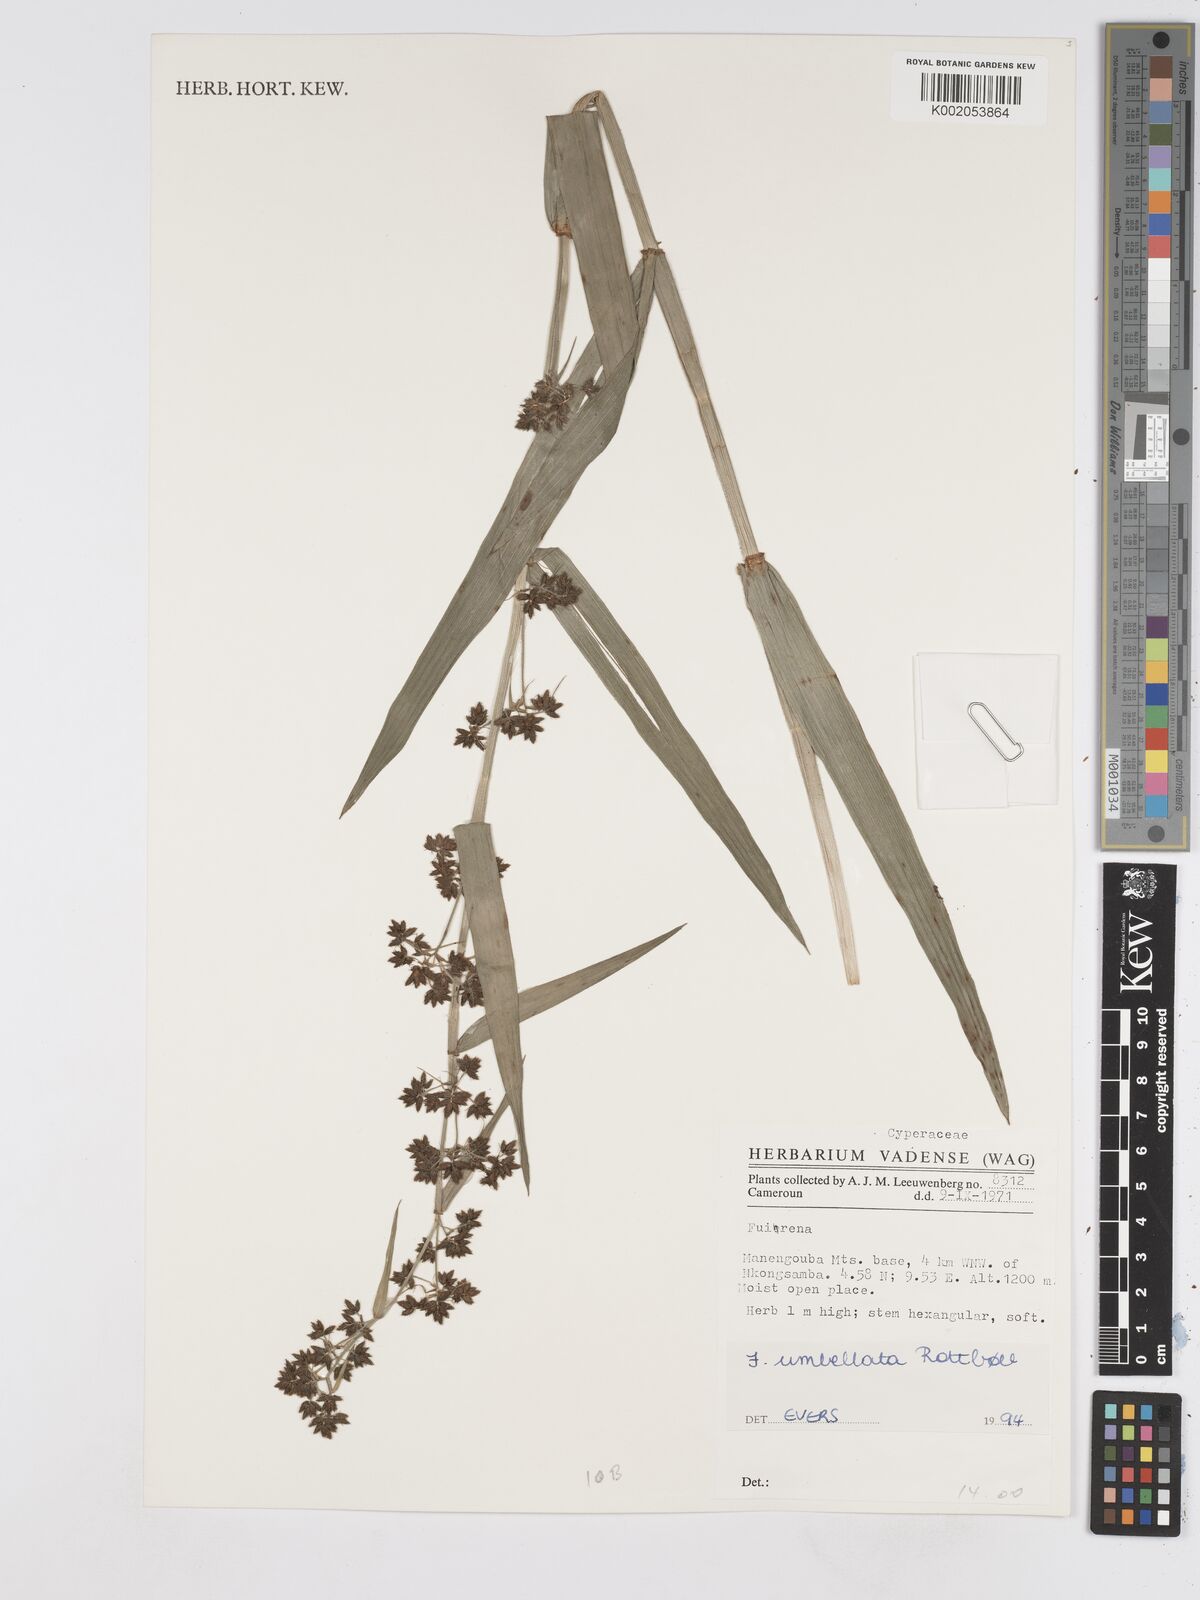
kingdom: Plantae
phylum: Tracheophyta
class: Liliopsida
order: Poales
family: Cyperaceae
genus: Fuirena
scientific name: Fuirena umbellata
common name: Yefen
